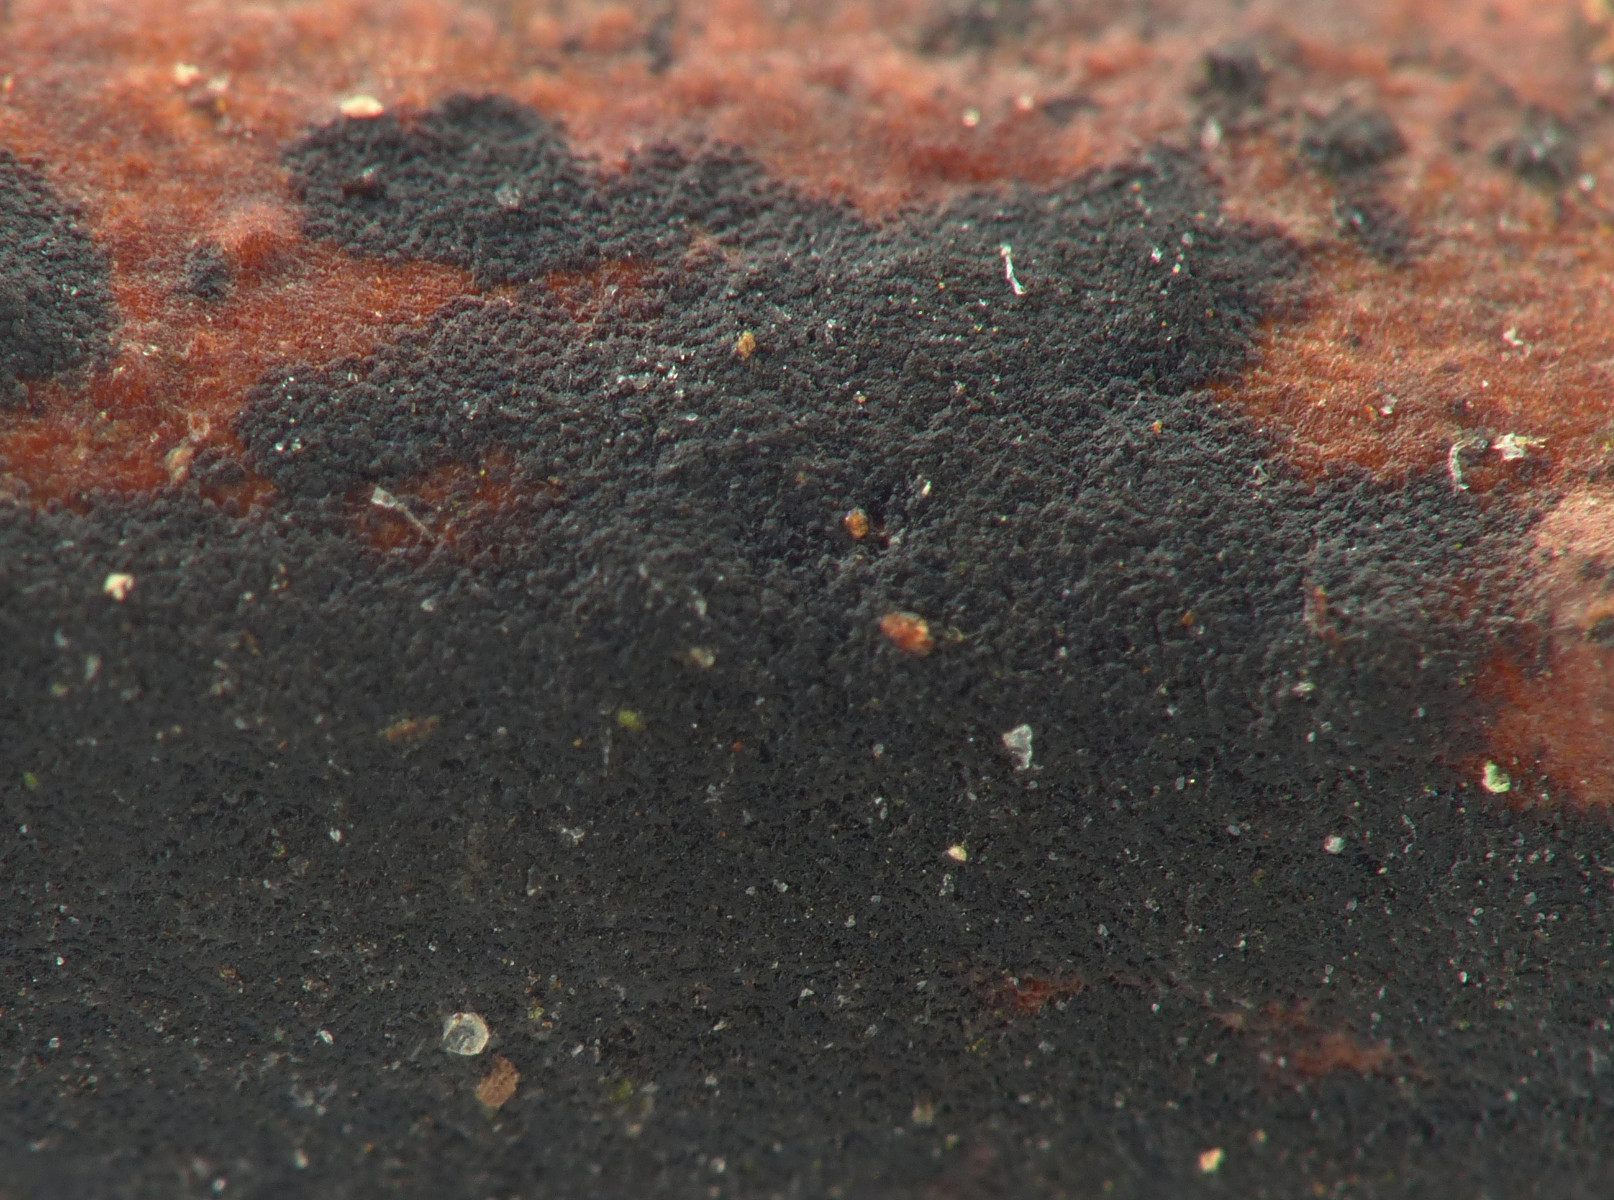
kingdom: Fungi
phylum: Ascomycota
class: Leotiomycetes
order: Helotiales
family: Mollisiaceae
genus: Cheirospora
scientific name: Cheirospora botryospora
